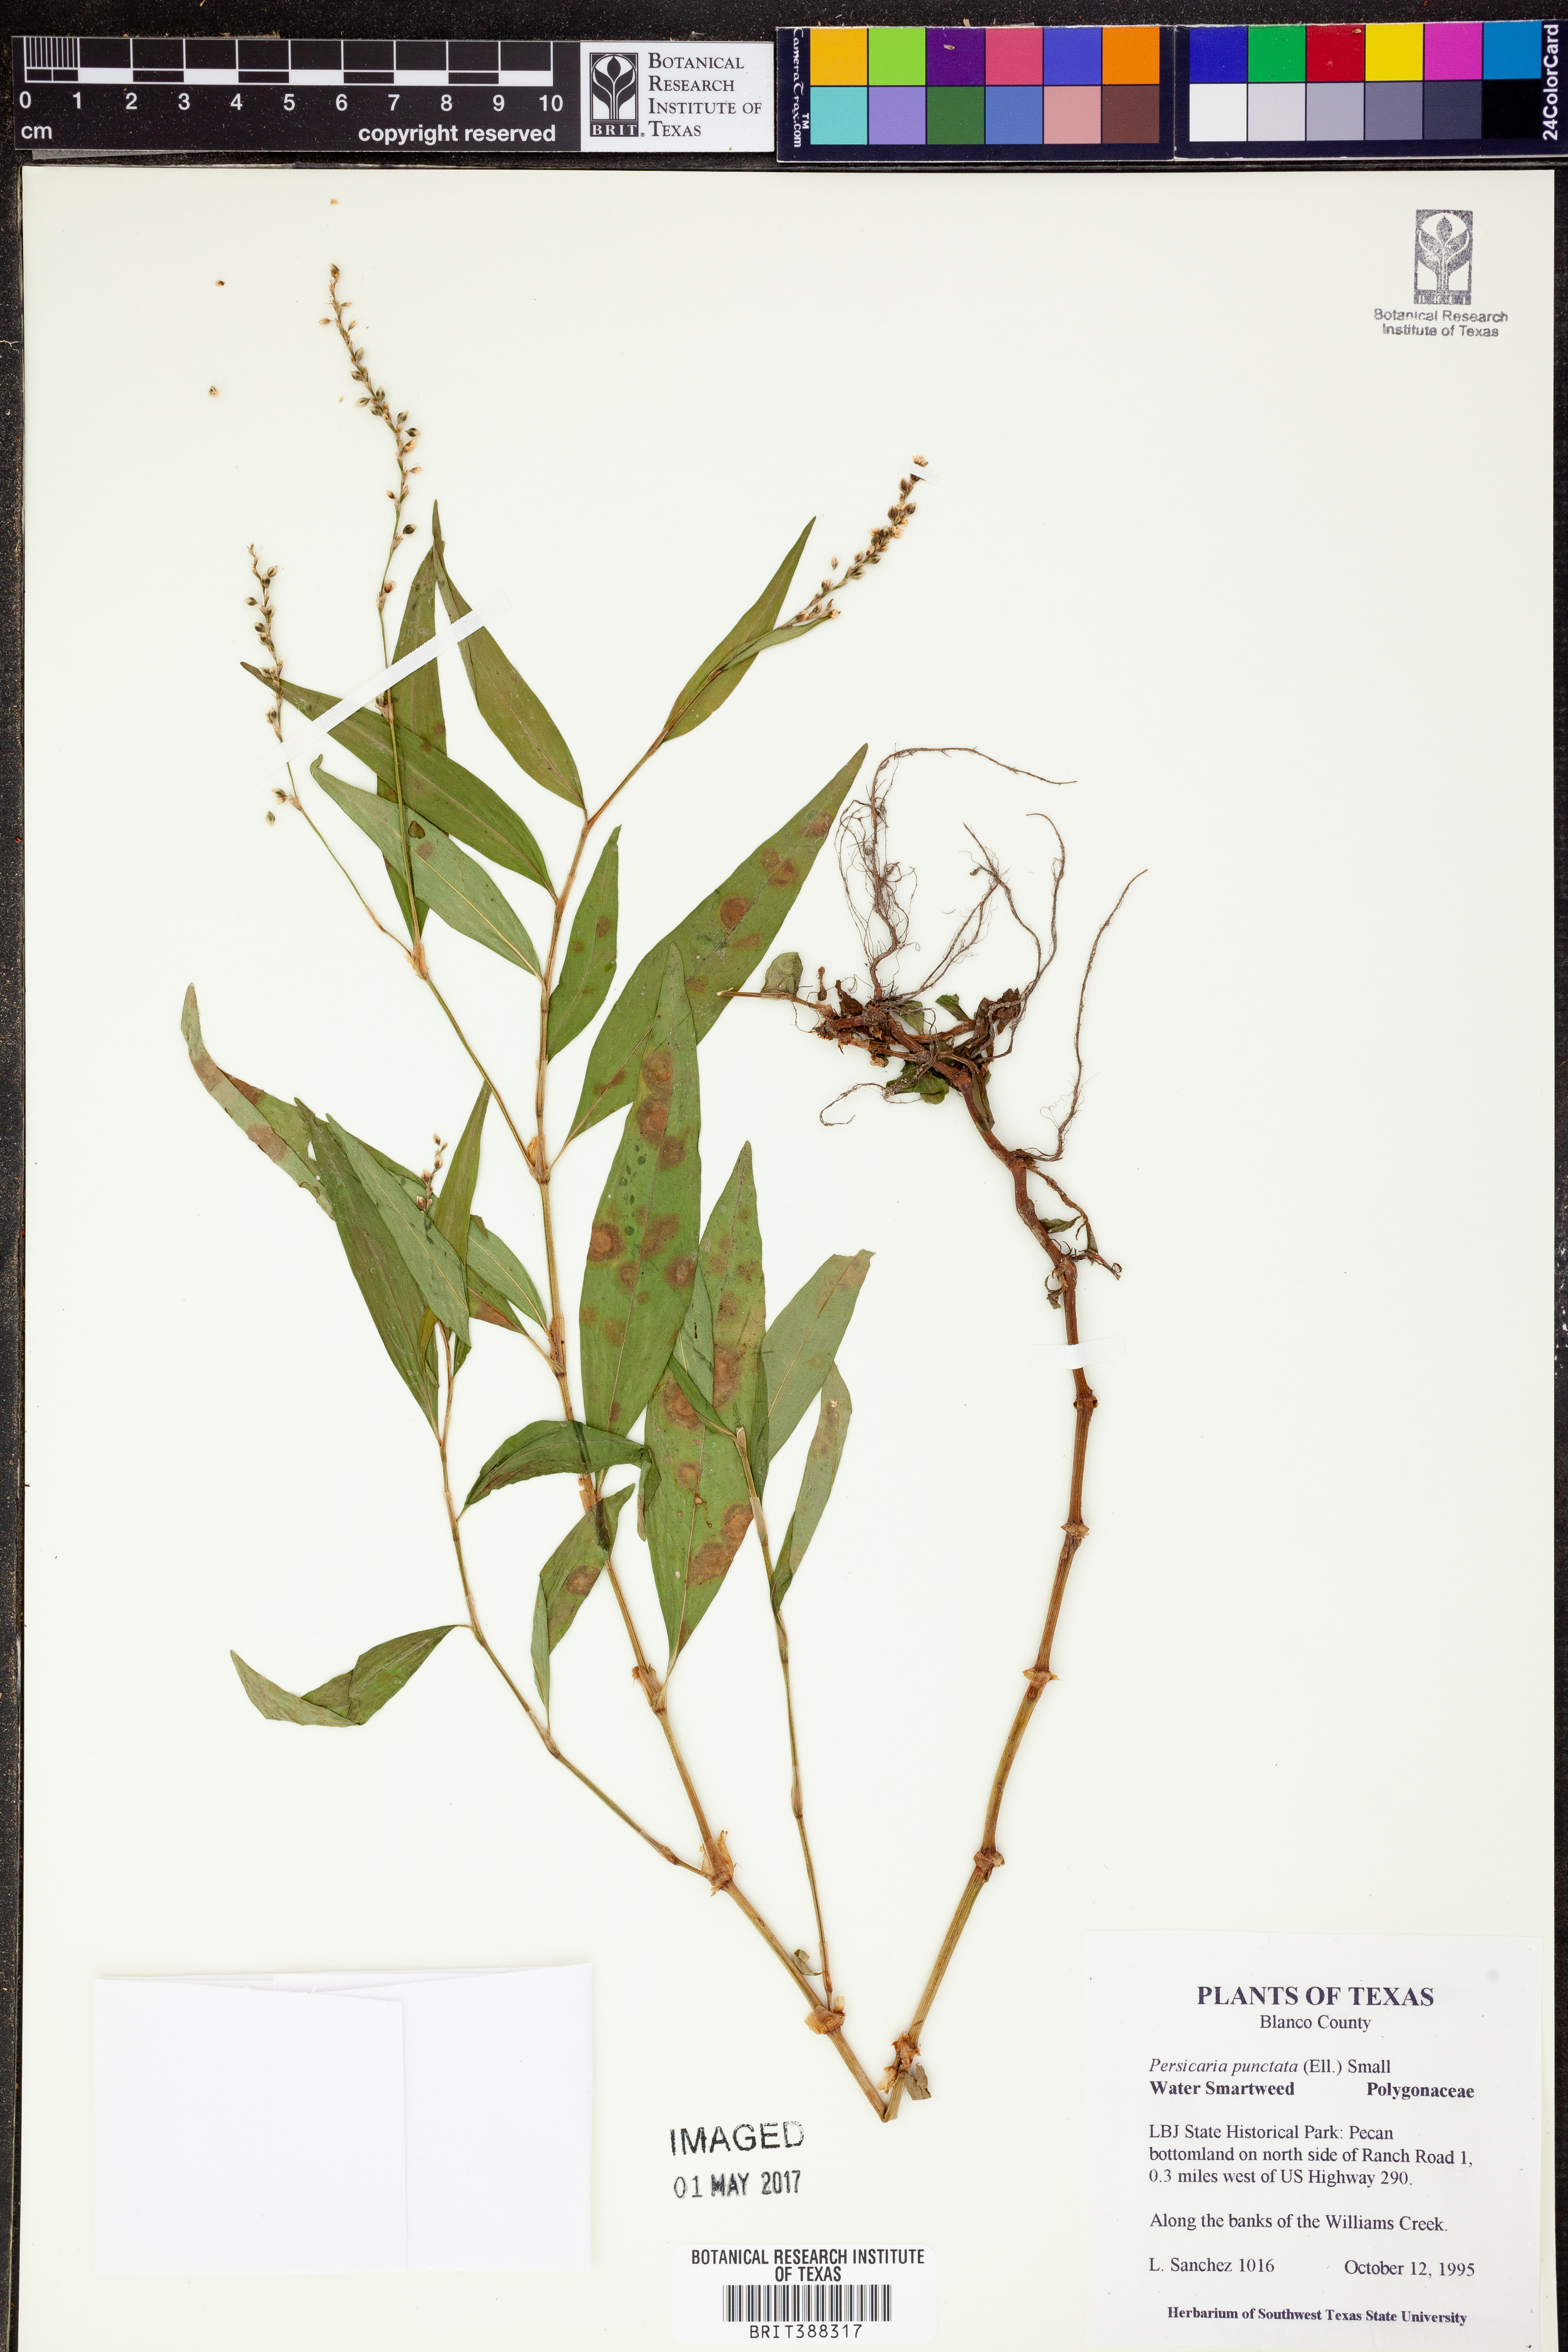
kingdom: Plantae
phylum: Tracheophyta
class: Magnoliopsida
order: Caryophyllales
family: Polygonaceae
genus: Persicaria
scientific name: Persicaria punctata
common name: Dotted smartweed
